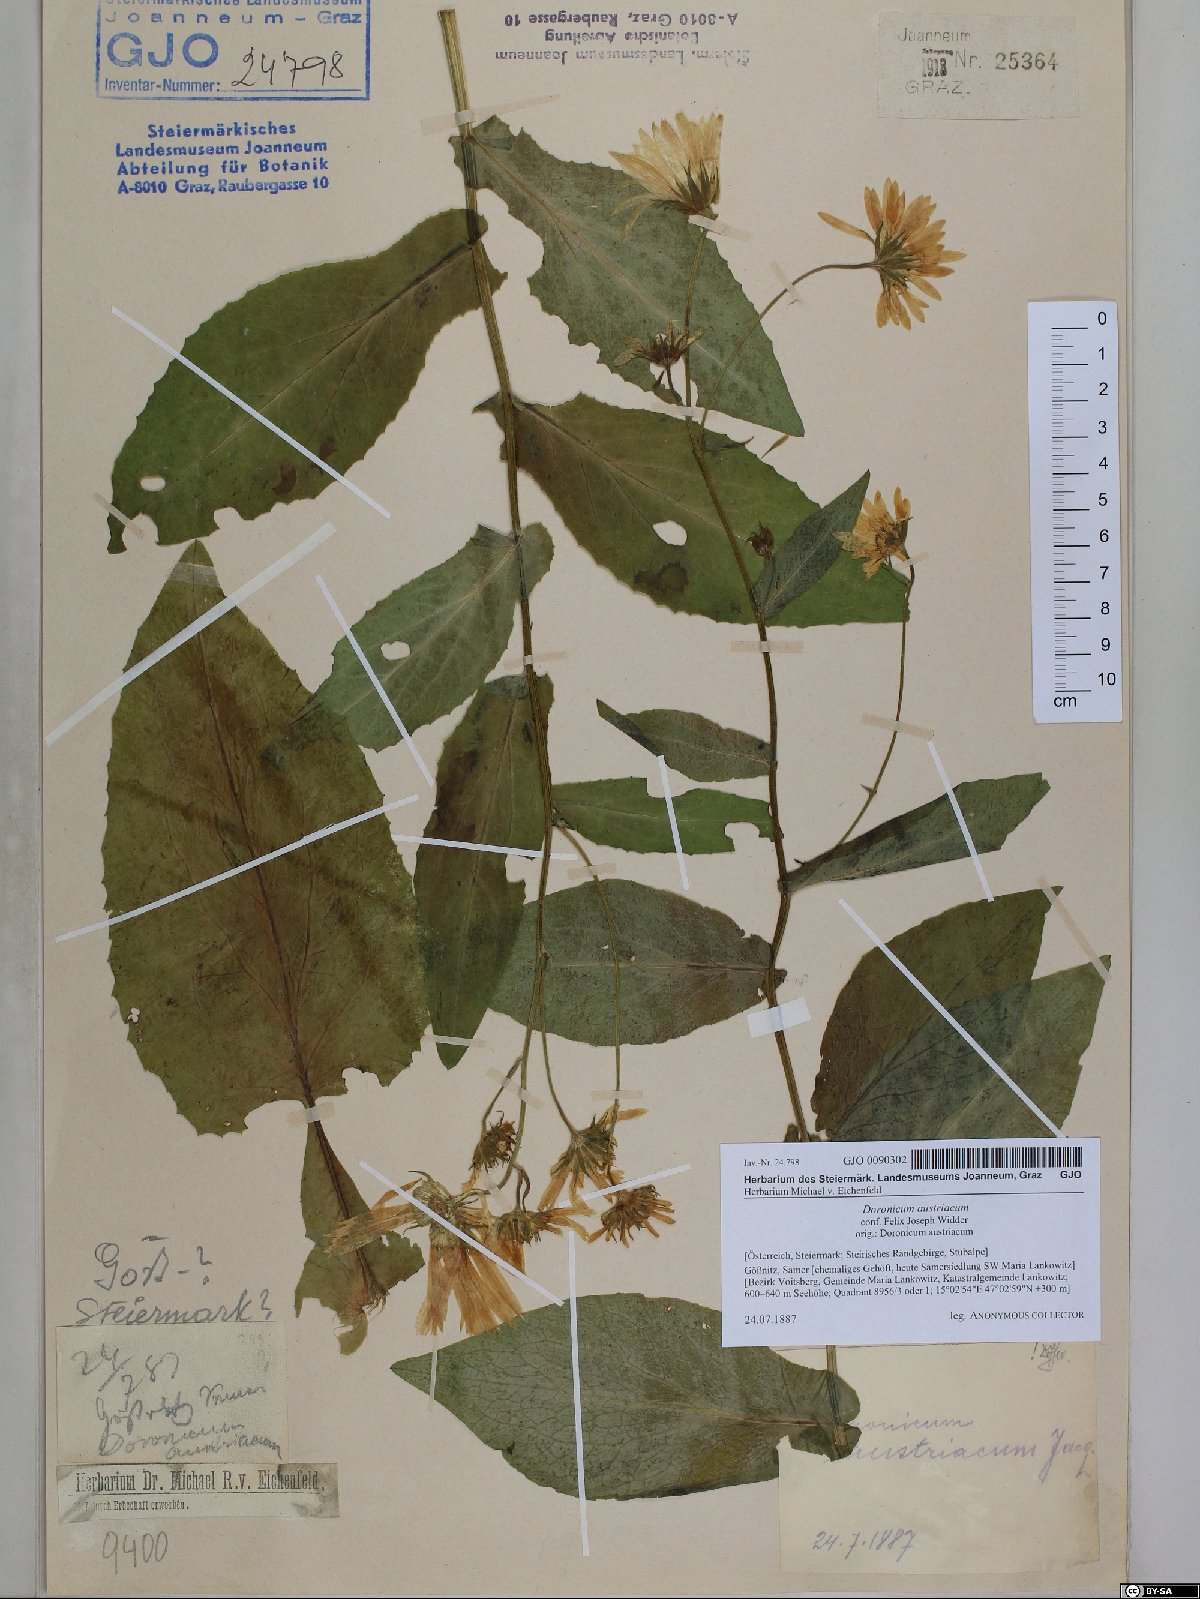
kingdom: Plantae
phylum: Tracheophyta
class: Magnoliopsida
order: Asterales
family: Asteraceae
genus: Doronicum
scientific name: Doronicum austriacum
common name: Austrian leopard's-bane
